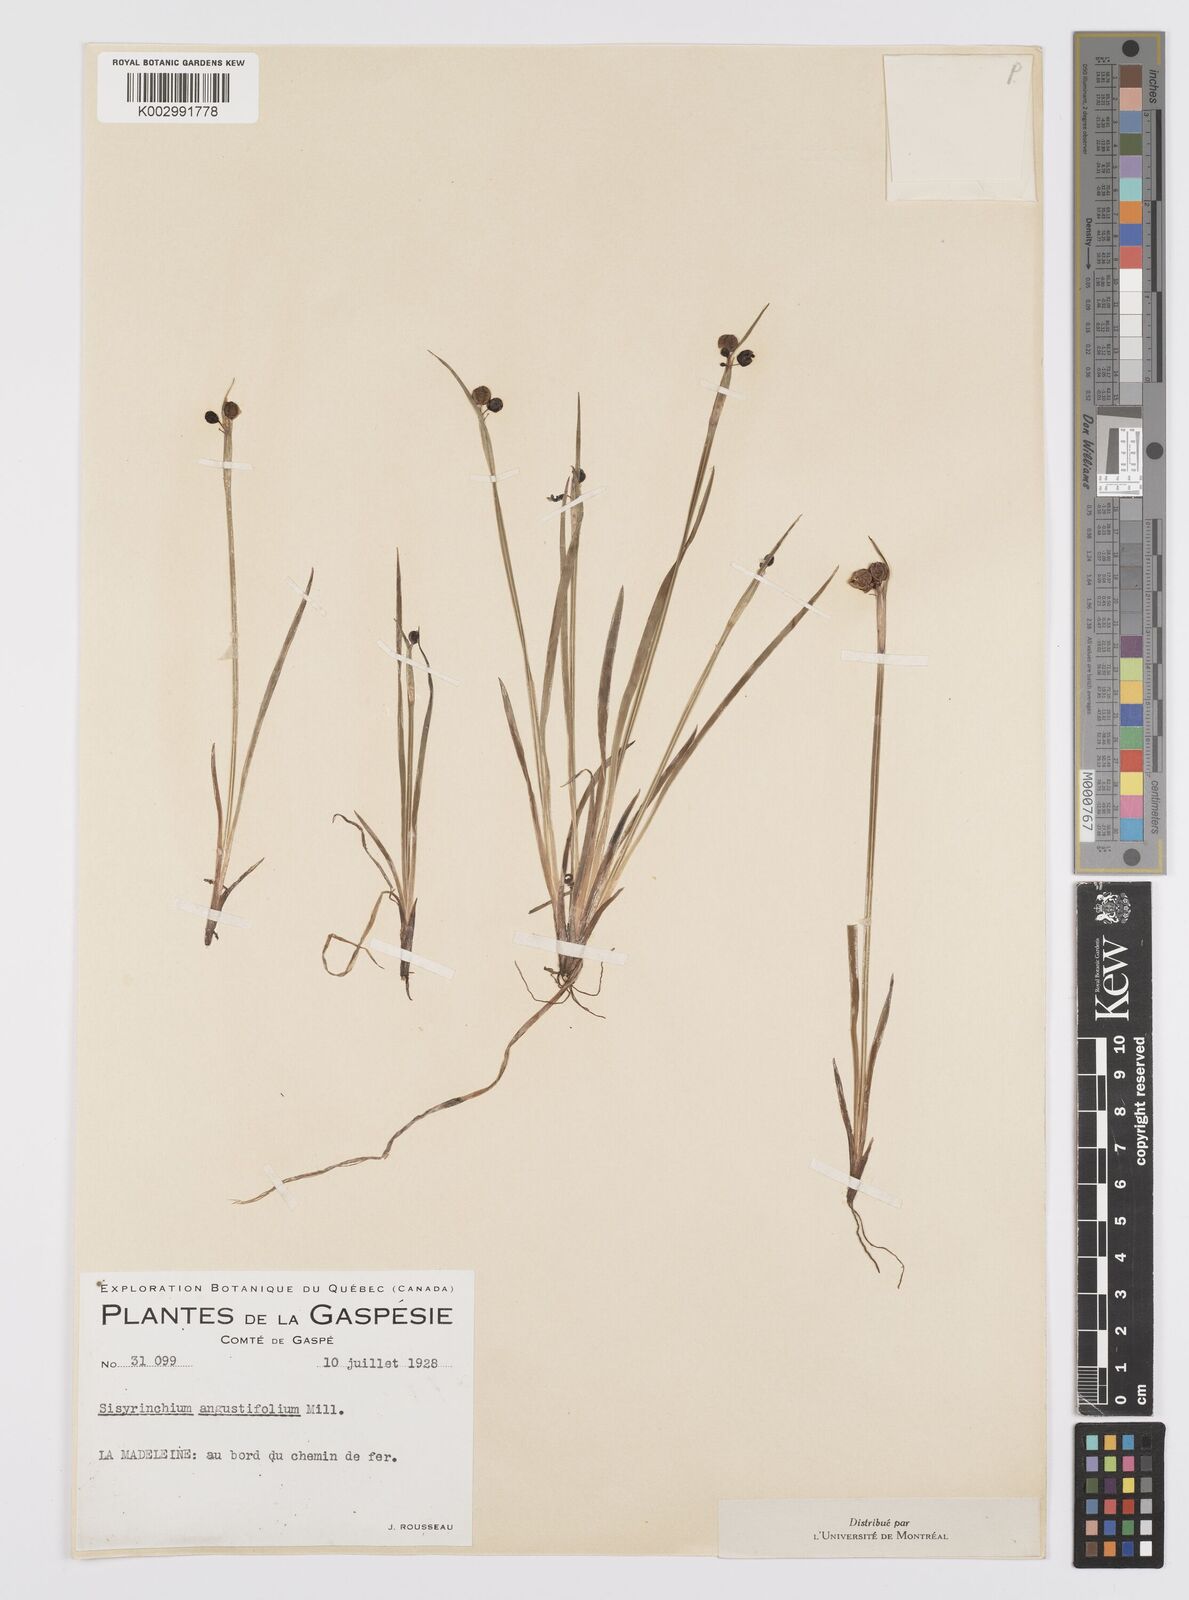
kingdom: Plantae
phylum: Tracheophyta
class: Liliopsida
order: Asparagales
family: Iridaceae
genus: Sisyrinchium
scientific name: Sisyrinchium bermudiana
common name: Blue-eyed-grass
